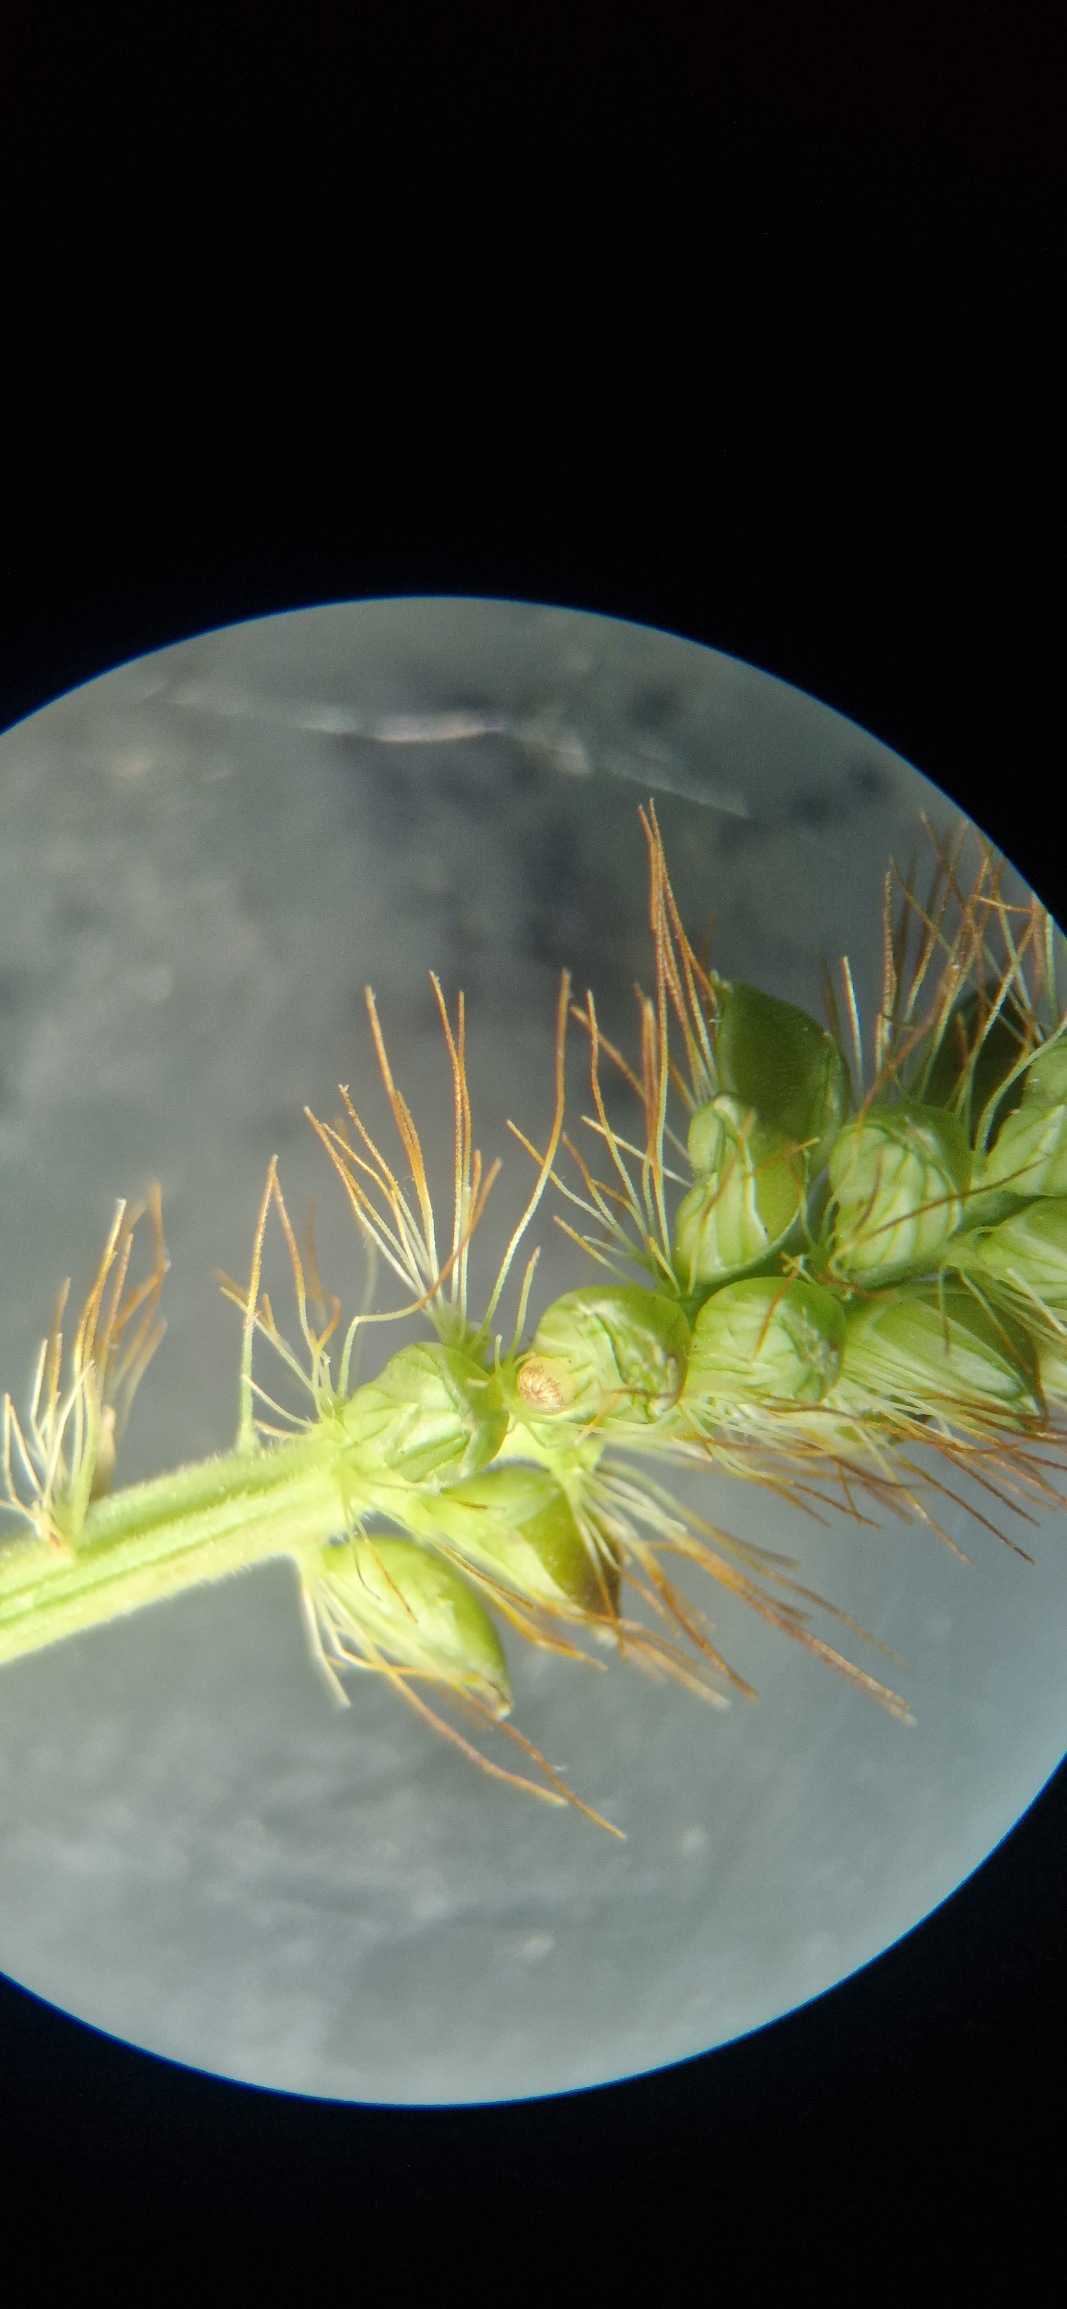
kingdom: Plantae
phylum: Tracheophyta
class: Liliopsida
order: Poales
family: Poaceae
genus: Setaria
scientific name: Setaria pumila
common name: Blågrøn skærmaks
